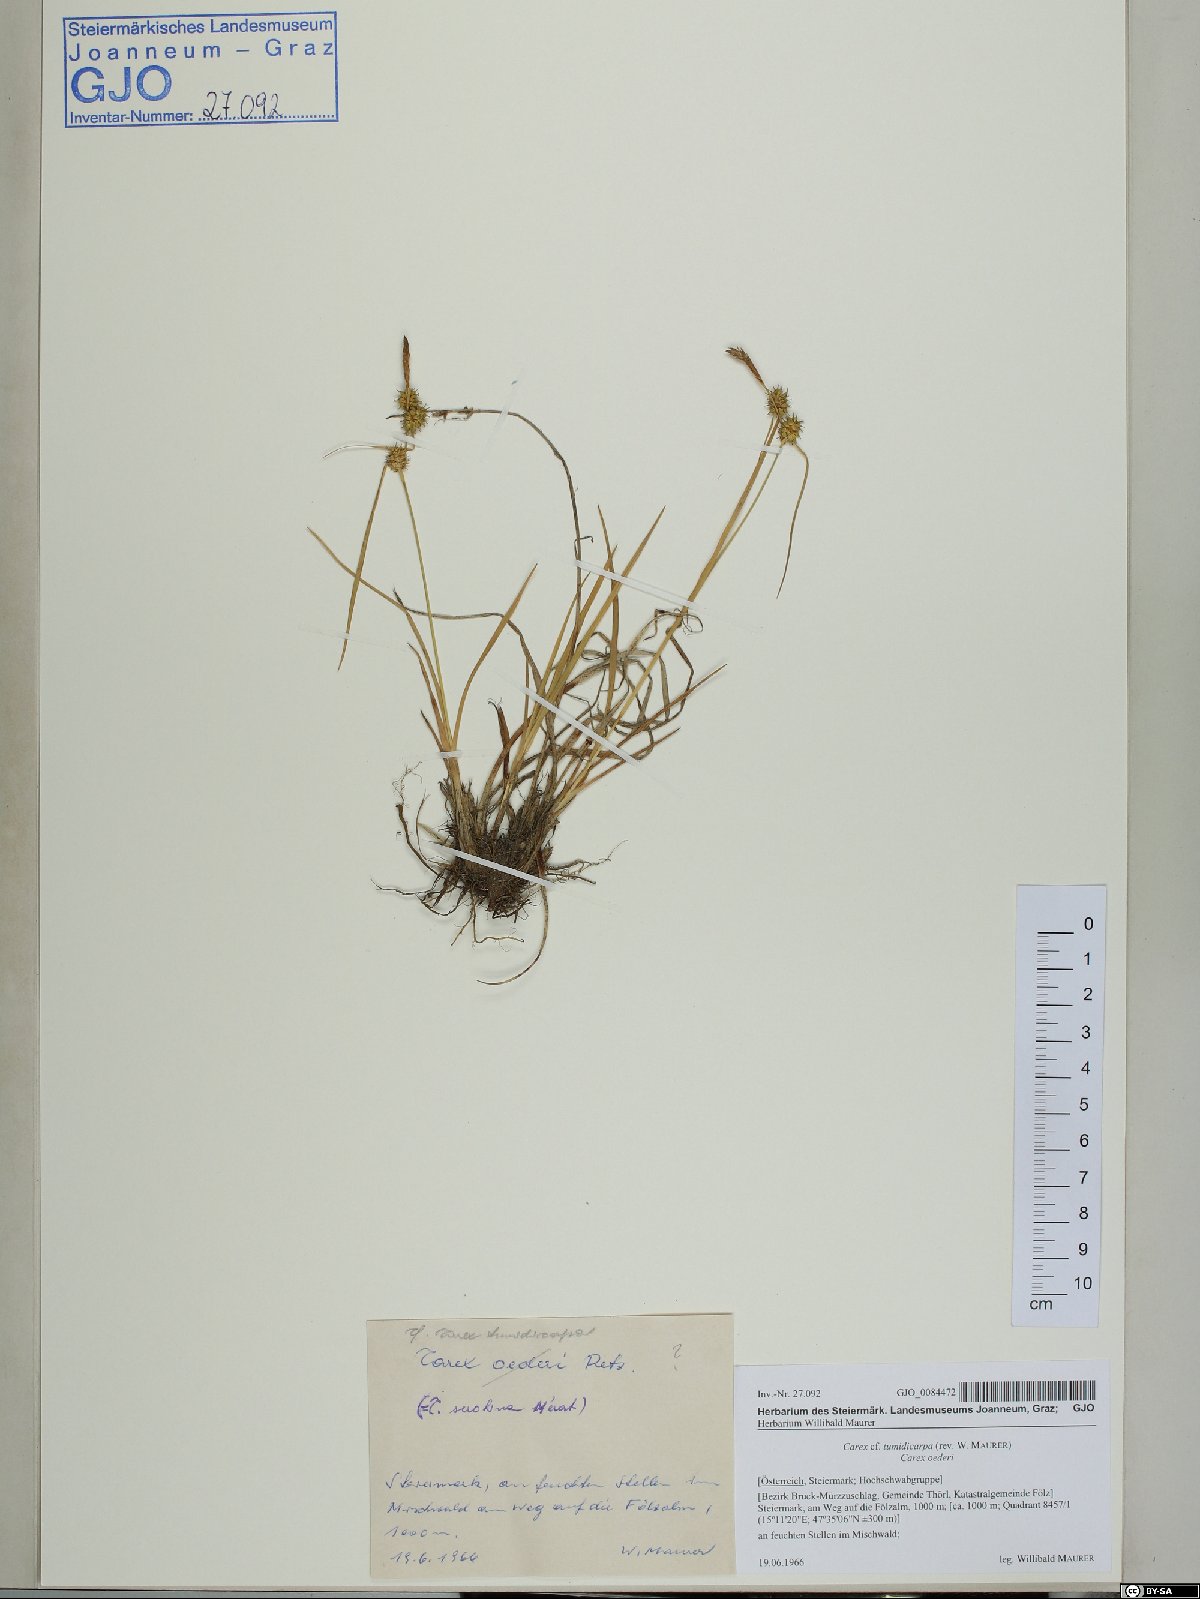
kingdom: Plantae
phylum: Tracheophyta
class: Liliopsida
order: Poales
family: Cyperaceae
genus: Carex
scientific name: Carex demissa
